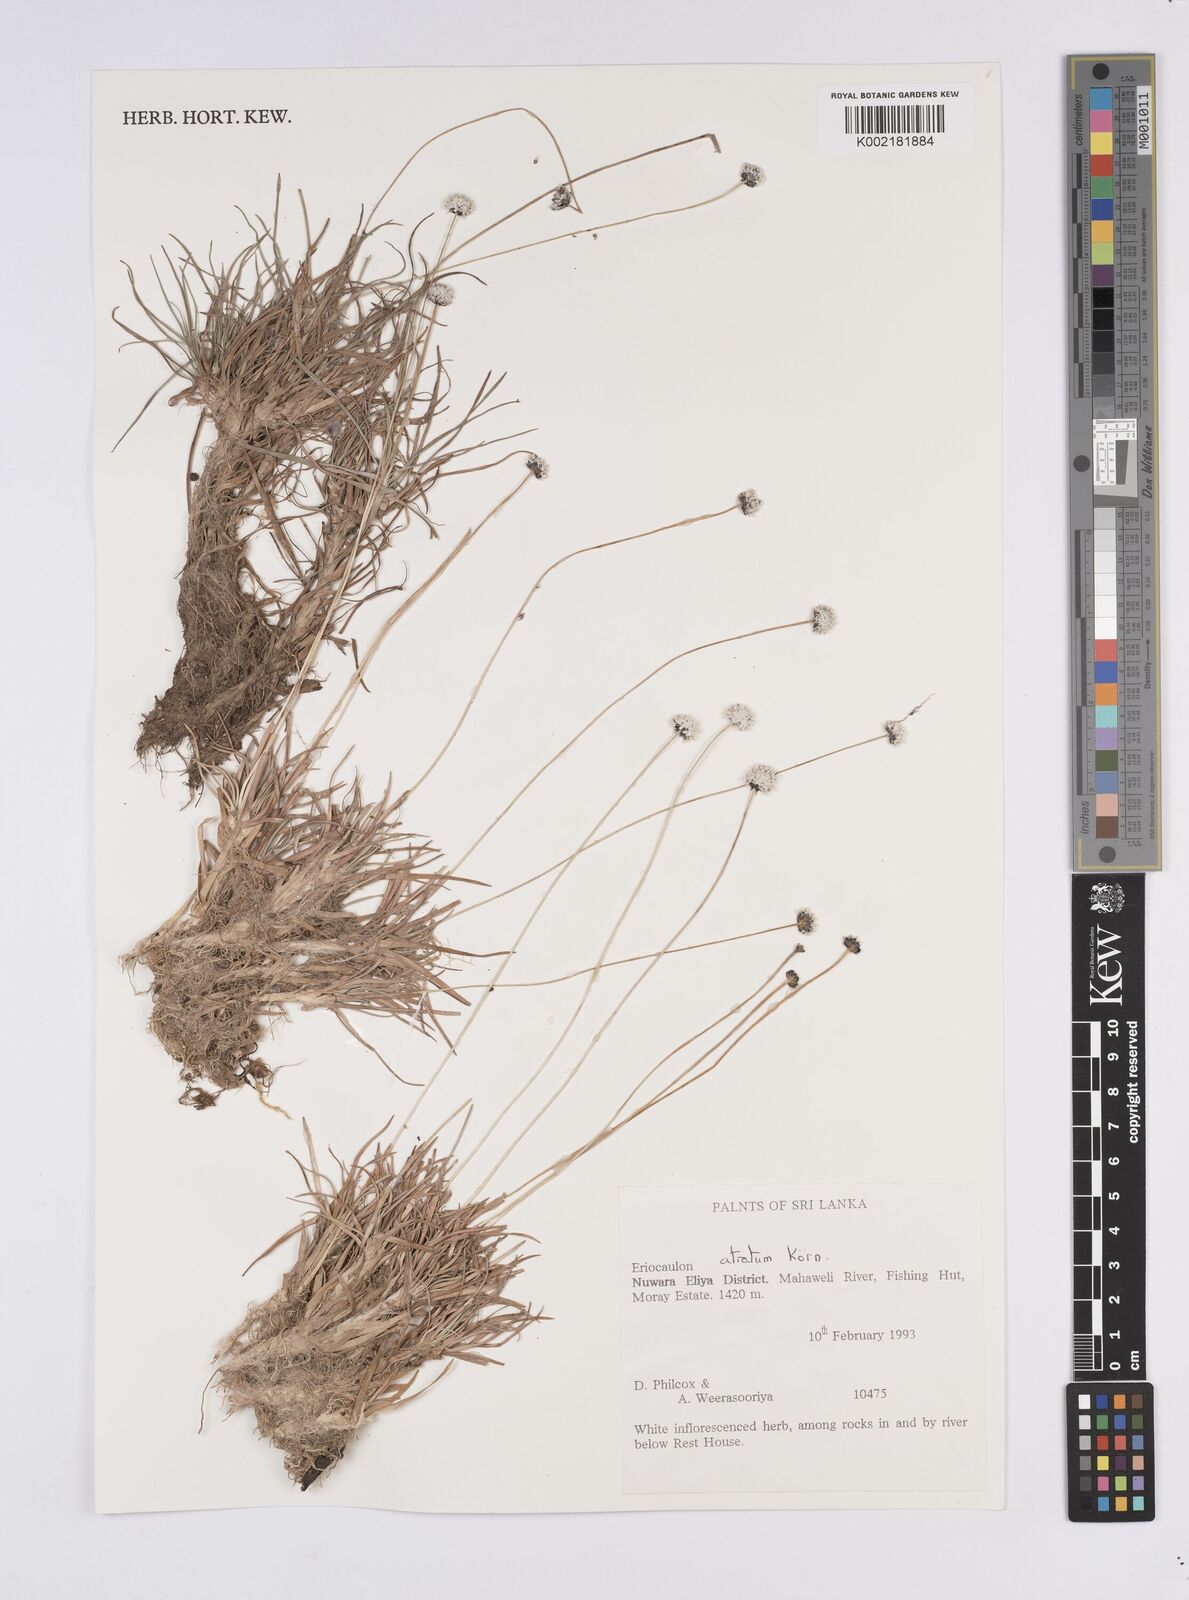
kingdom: Plantae
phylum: Tracheophyta
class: Liliopsida
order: Poales
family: Eriocaulaceae
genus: Eriocaulon
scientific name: Eriocaulon atratum
